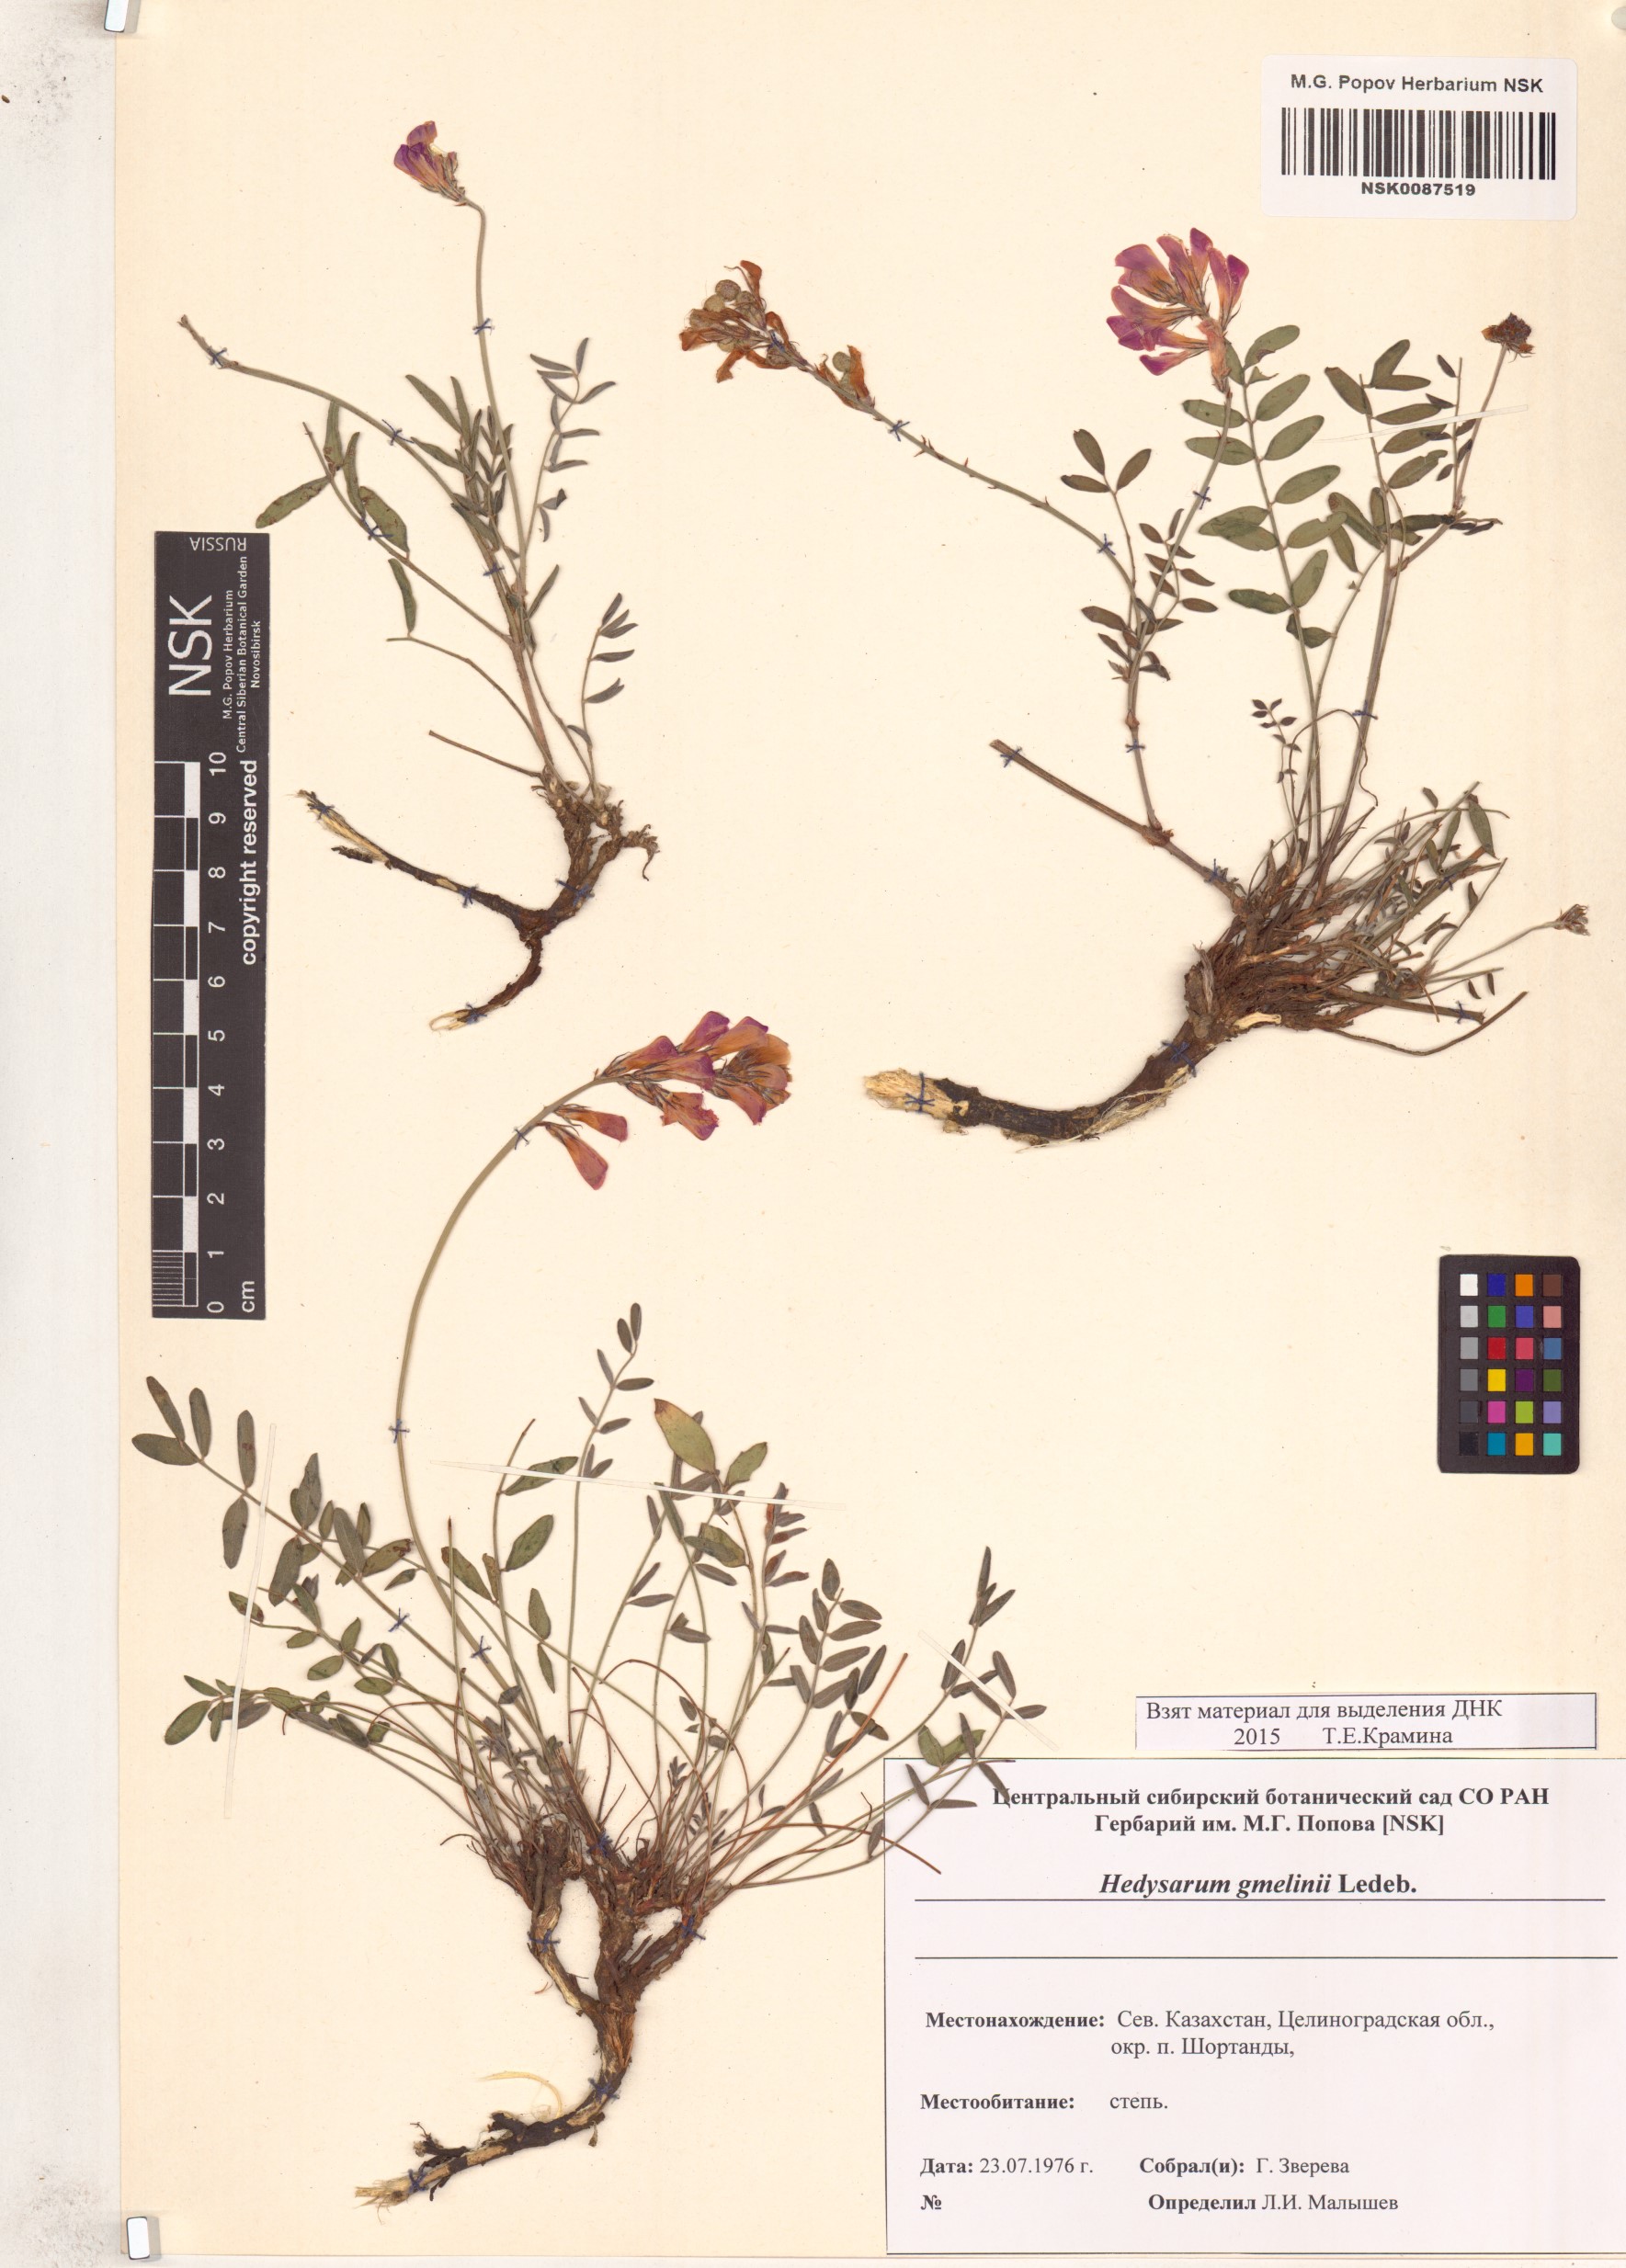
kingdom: Plantae
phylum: Tracheophyta
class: Magnoliopsida
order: Fabales
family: Fabaceae
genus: Hedysarum
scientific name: Hedysarum gmelinii
